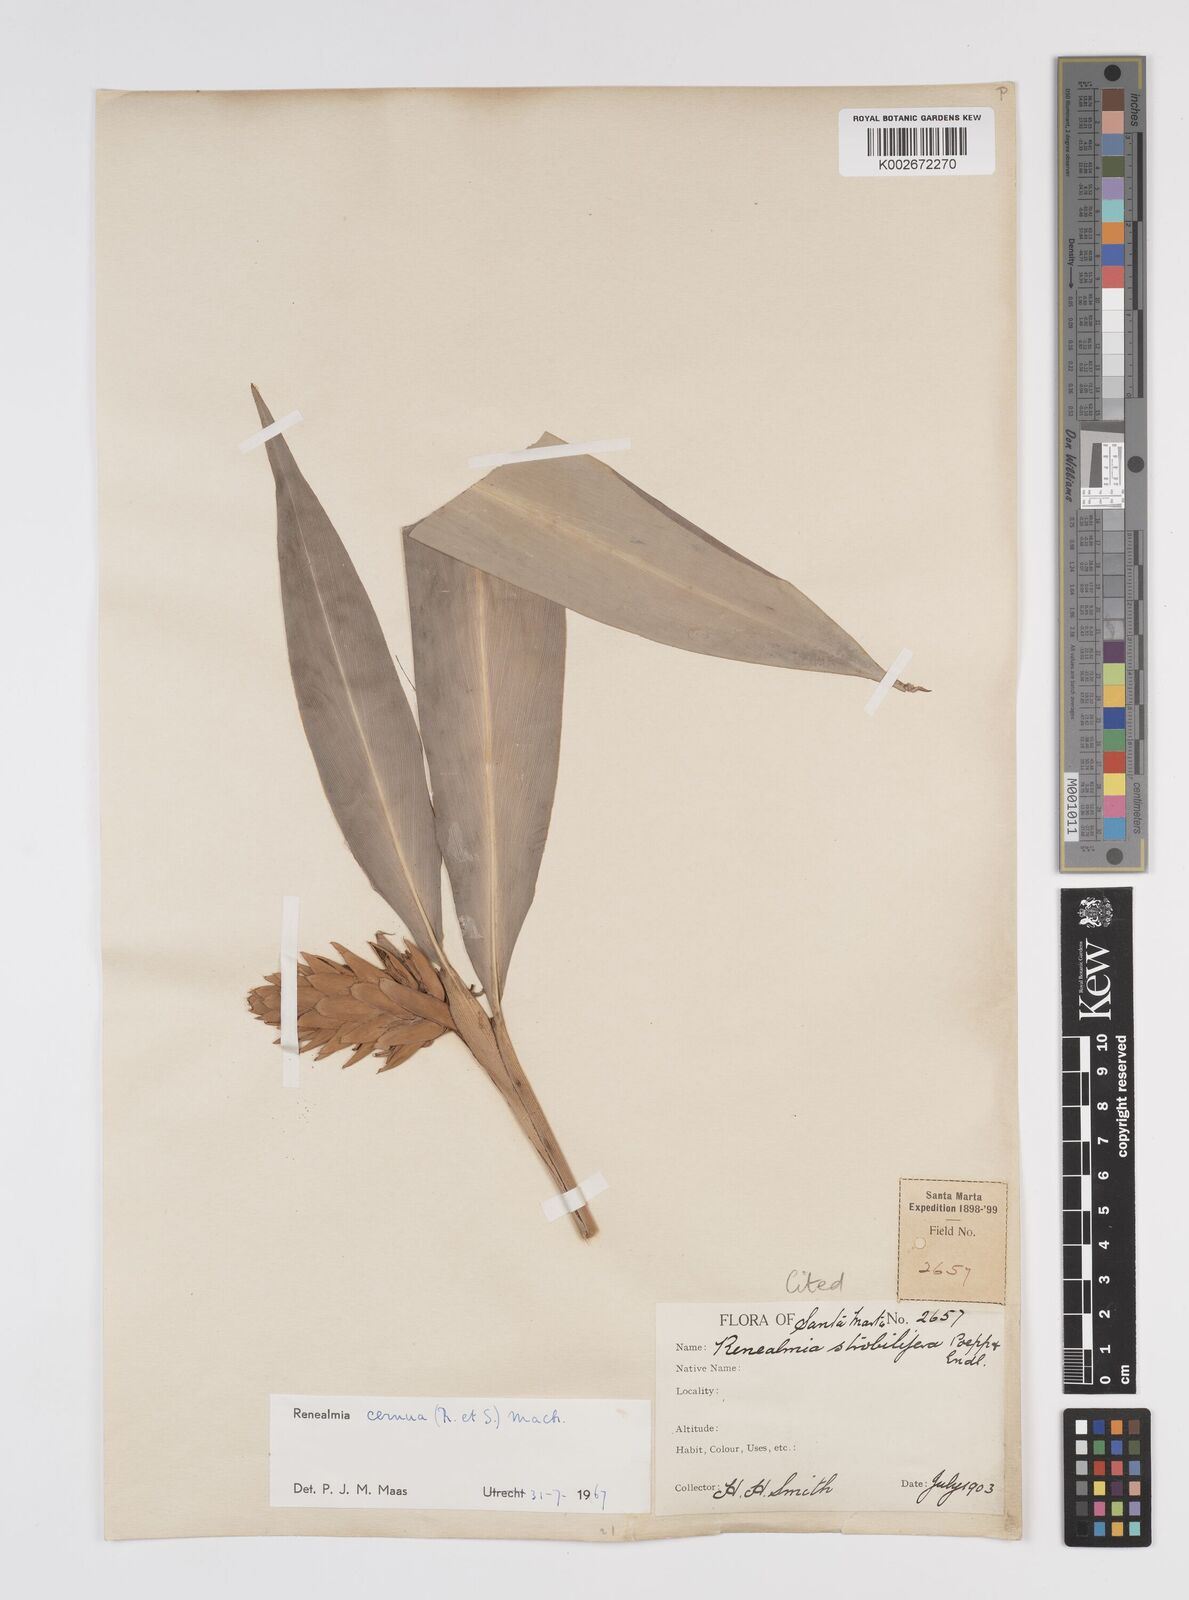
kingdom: Plantae
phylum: Tracheophyta
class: Liliopsida
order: Zingiberales
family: Zingiberaceae
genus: Renealmia
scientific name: Renealmia cernua
